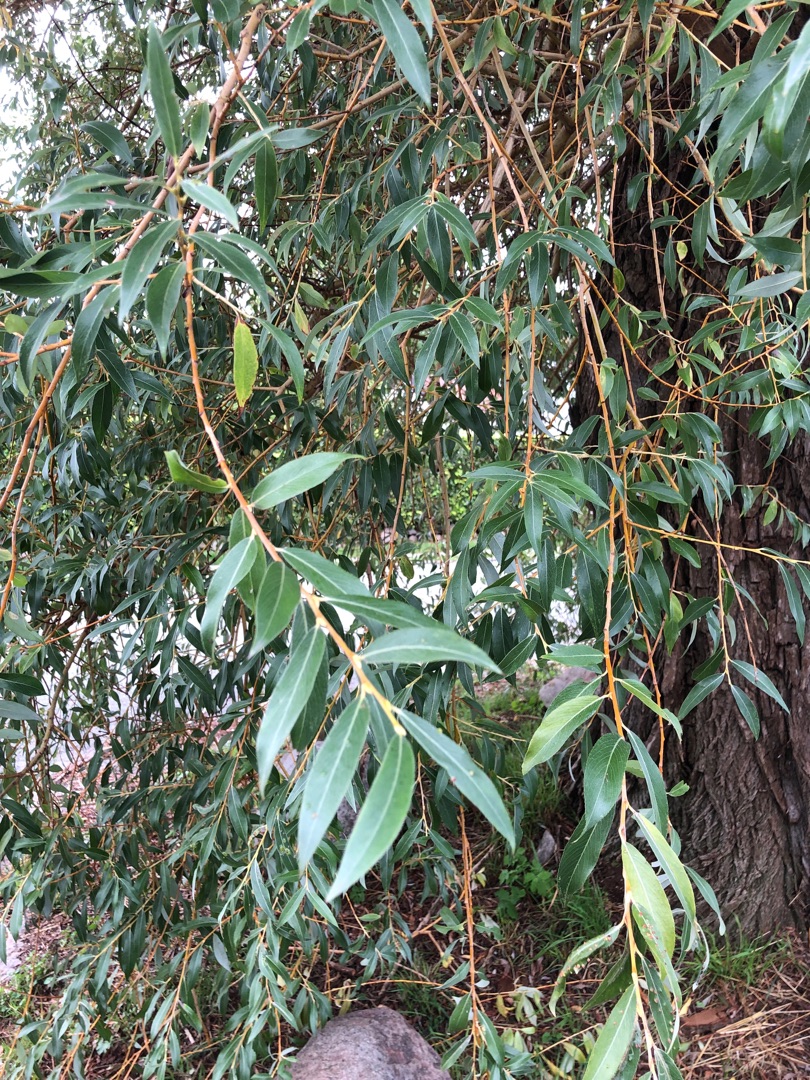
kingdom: Plantae
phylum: Tracheophyta
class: Magnoliopsida
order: Malpighiales
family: Salicaceae
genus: Salix
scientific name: Salix
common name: Pileslægten
